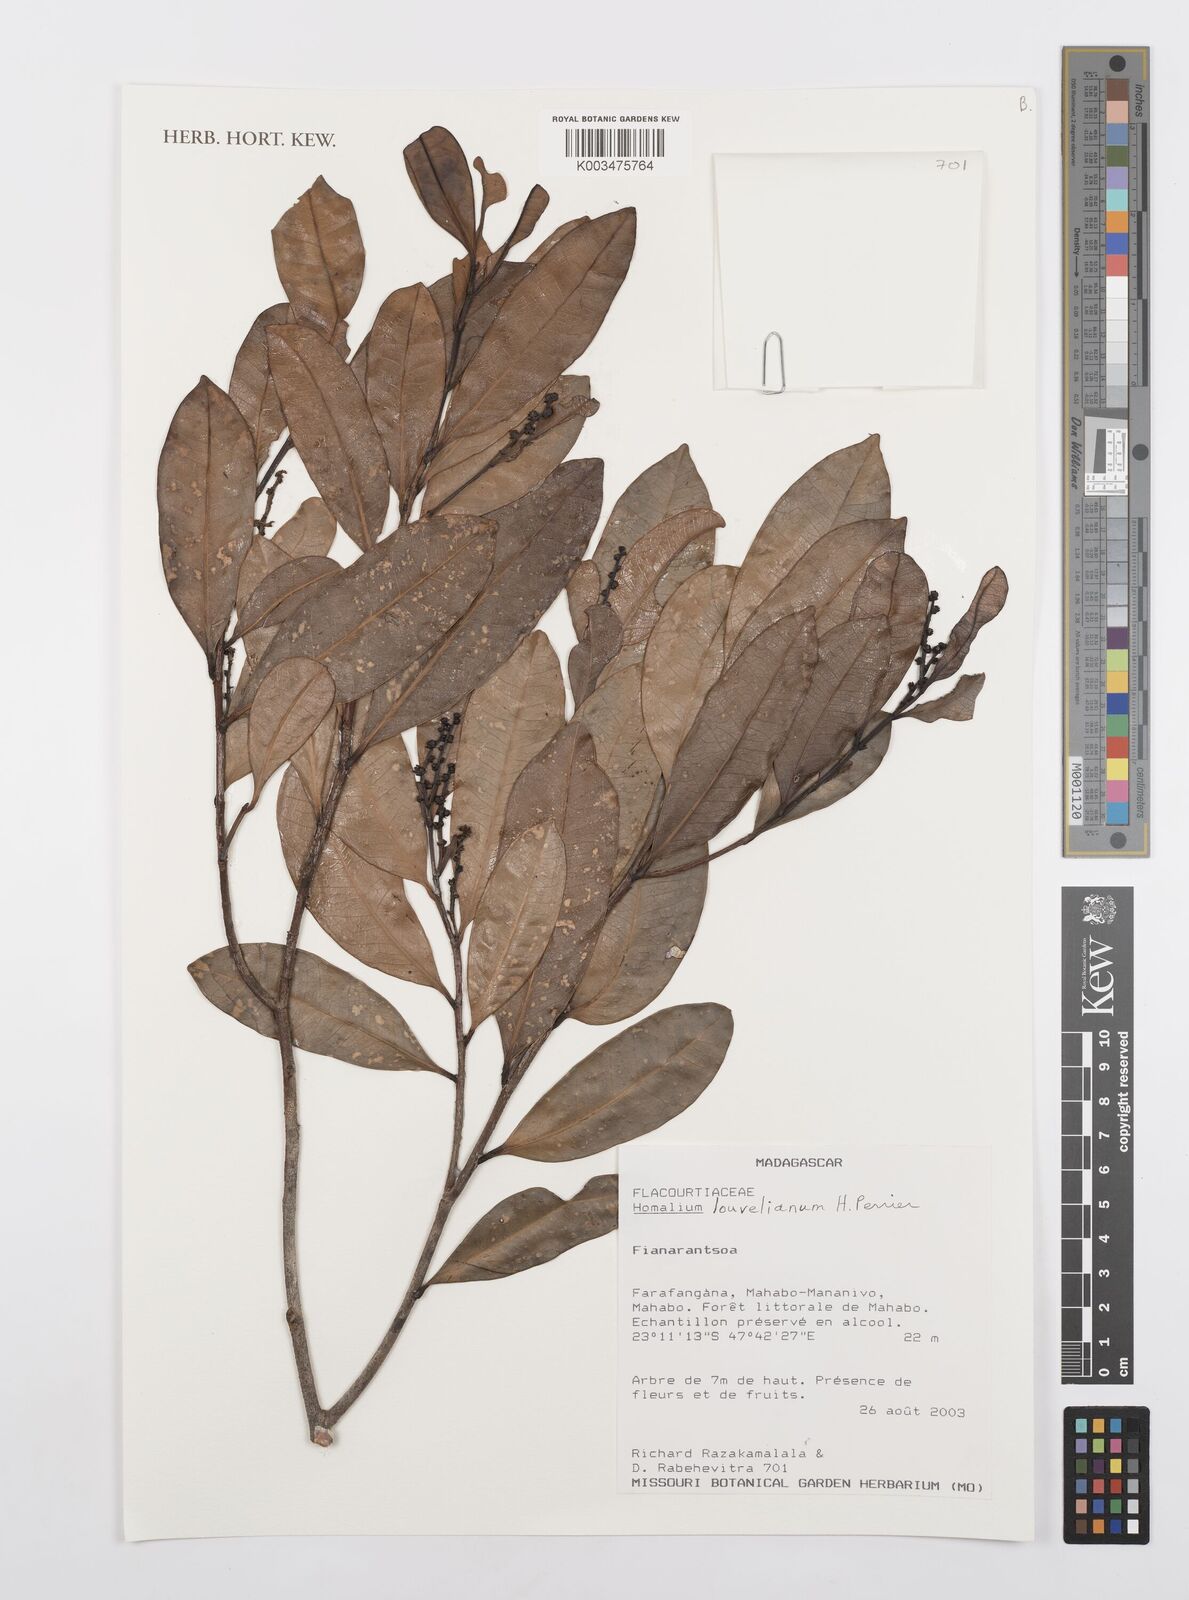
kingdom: Plantae
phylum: Tracheophyta
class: Magnoliopsida
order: Malpighiales
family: Salicaceae
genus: Homalium
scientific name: Homalium louvelianum
